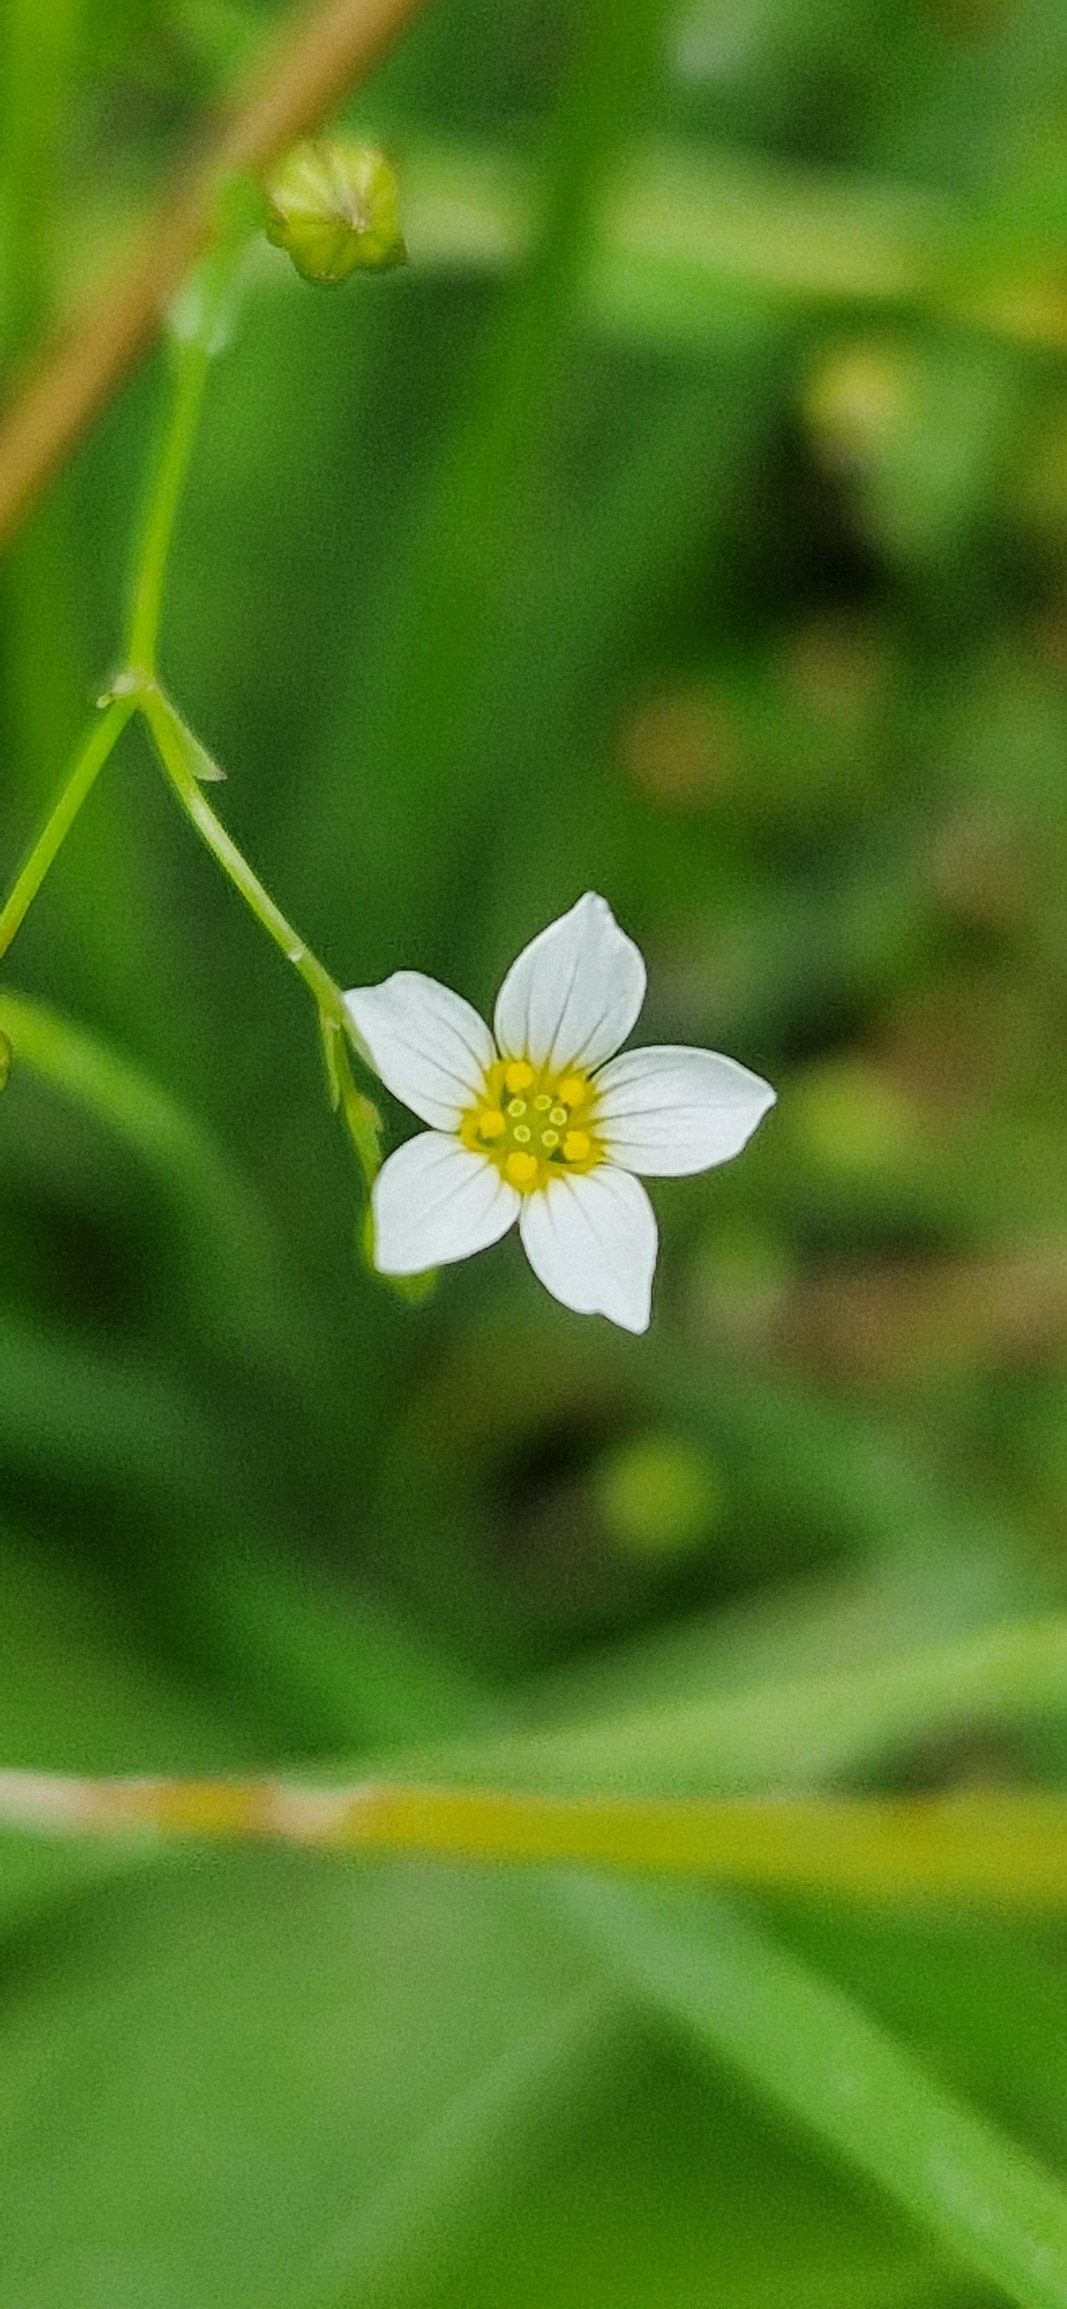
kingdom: Plantae
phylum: Tracheophyta
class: Magnoliopsida
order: Malpighiales
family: Linaceae
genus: Linum
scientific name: Linum catharticum
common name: Vild hør
